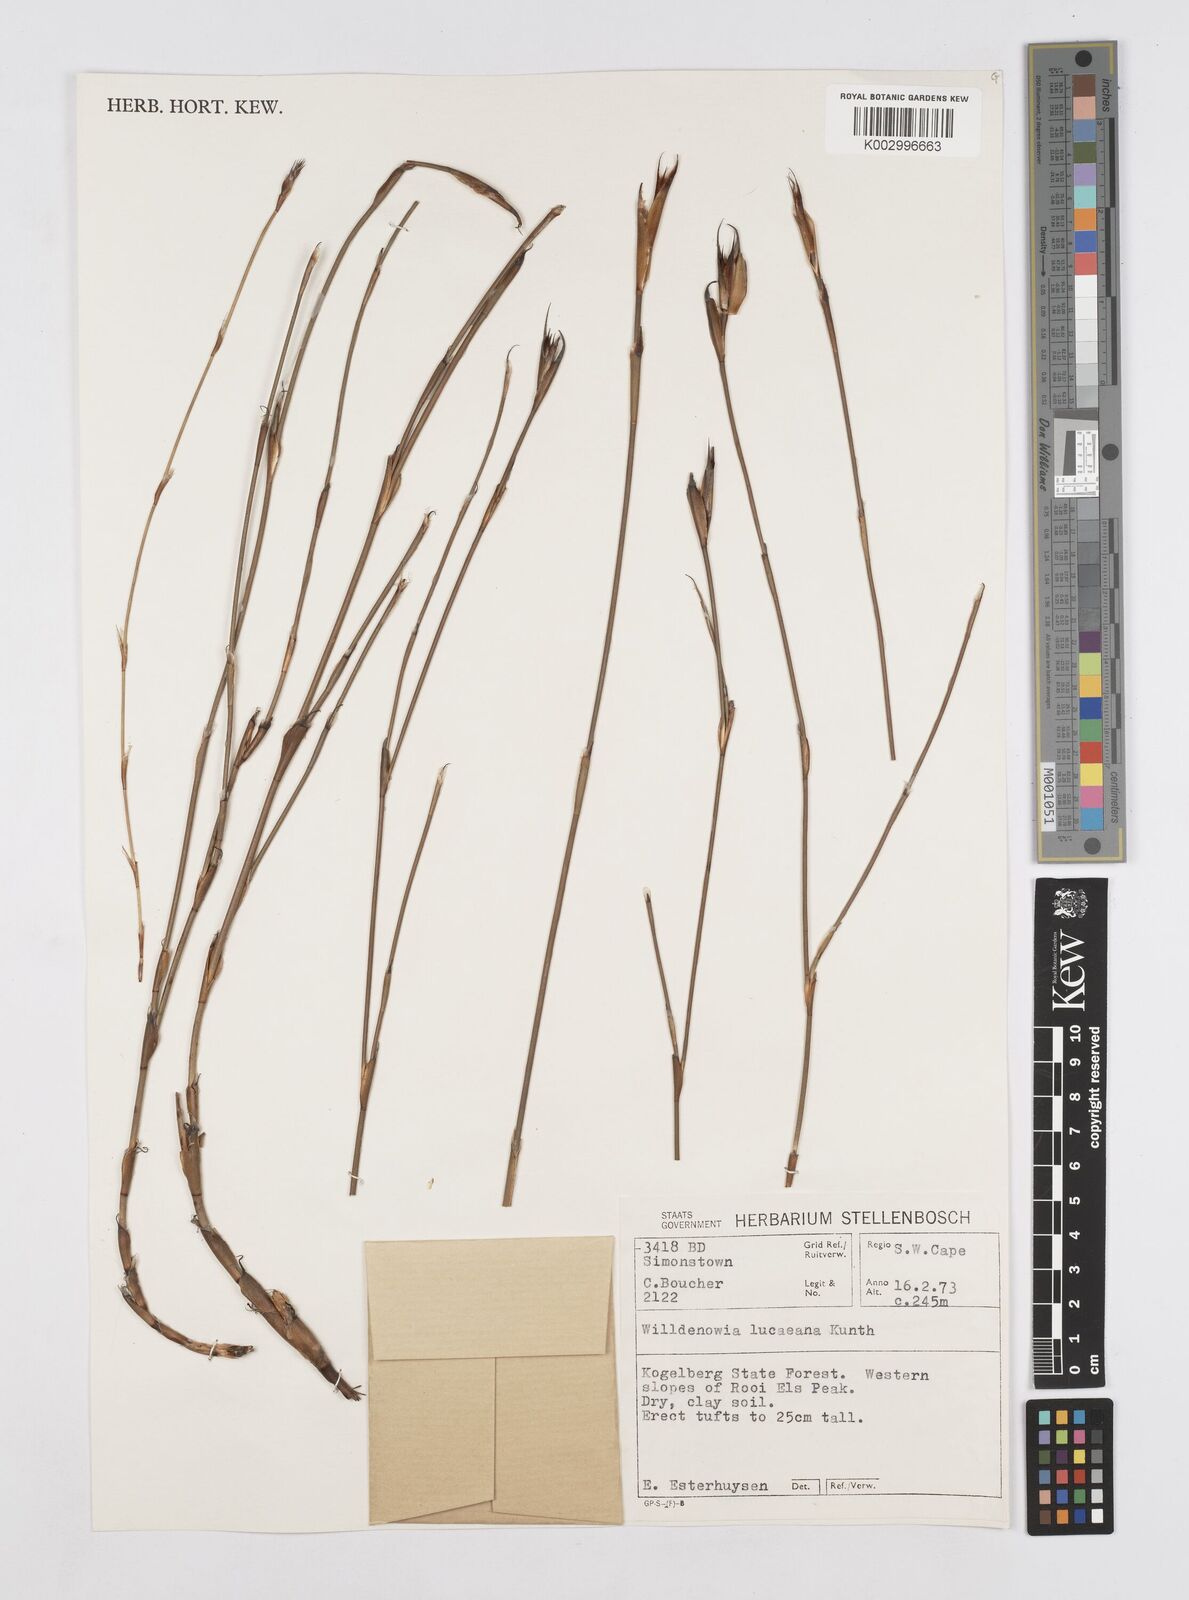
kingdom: Plantae
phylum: Tracheophyta
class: Liliopsida
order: Poales
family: Restionaceae
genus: Willdenowia
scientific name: Willdenowia glomerata
